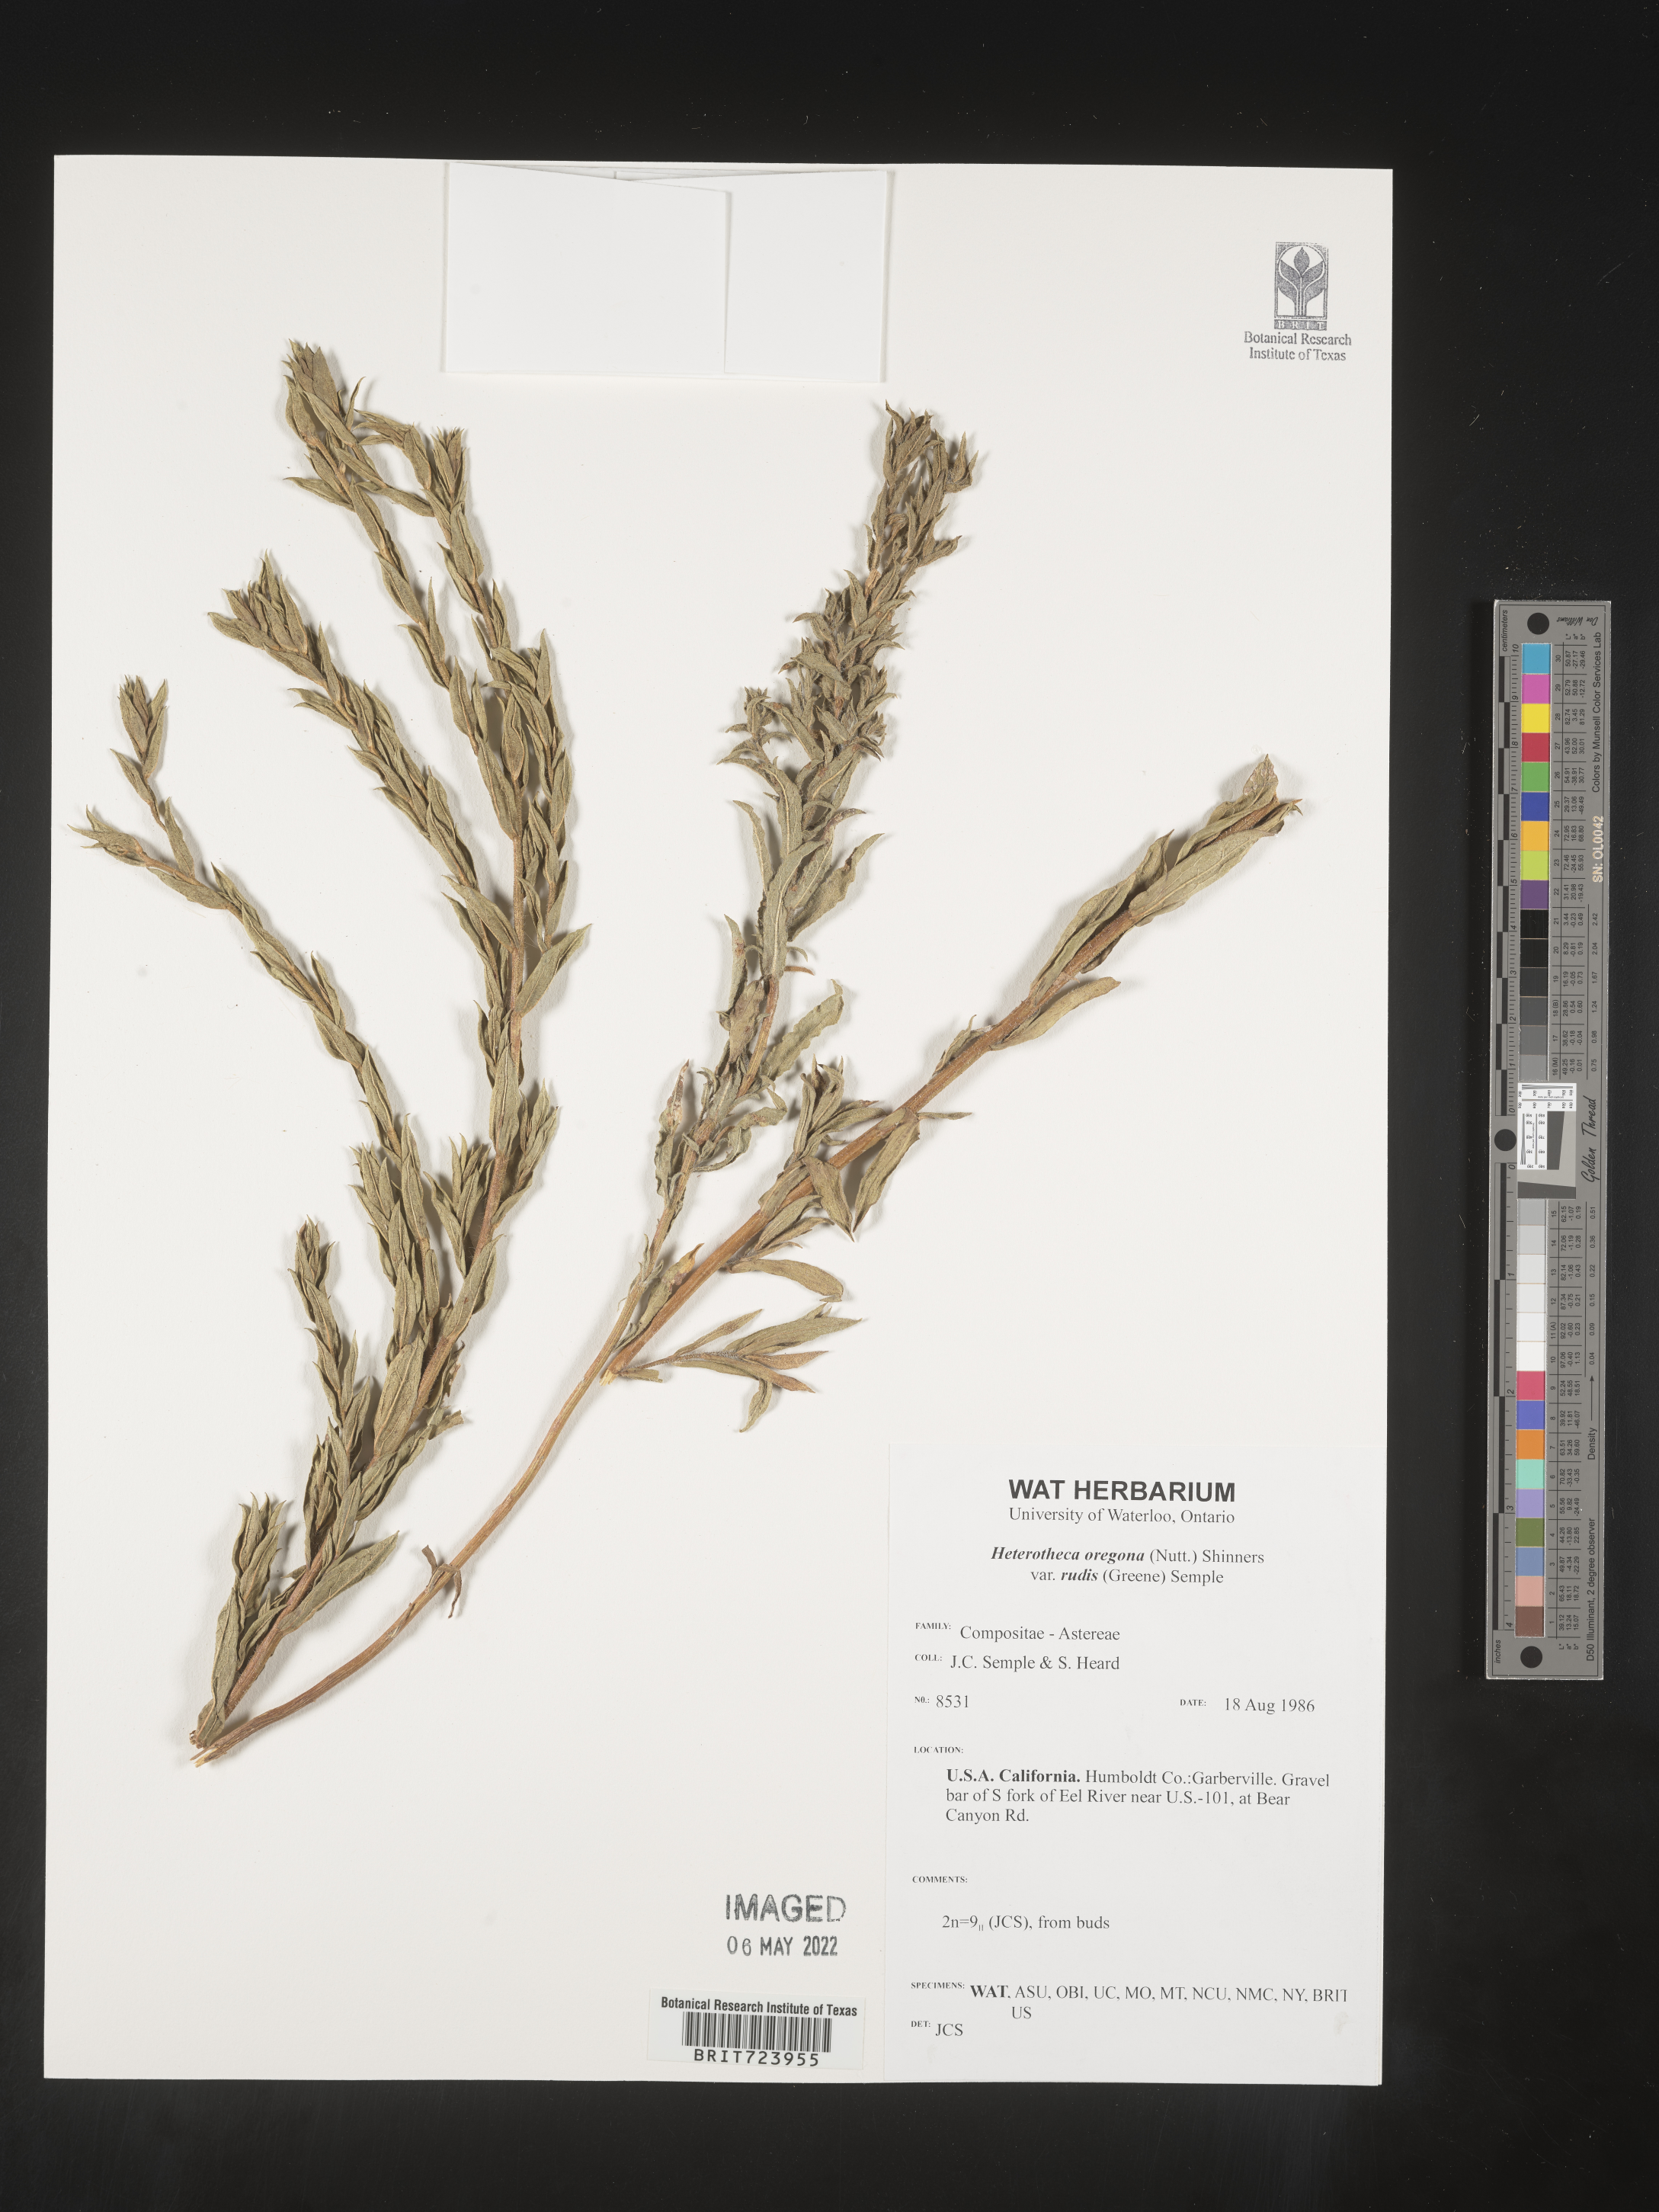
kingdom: Plantae
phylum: Tracheophyta
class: Magnoliopsida
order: Asterales
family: Asteraceae
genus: Heterotheca
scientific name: Heterotheca oregona
